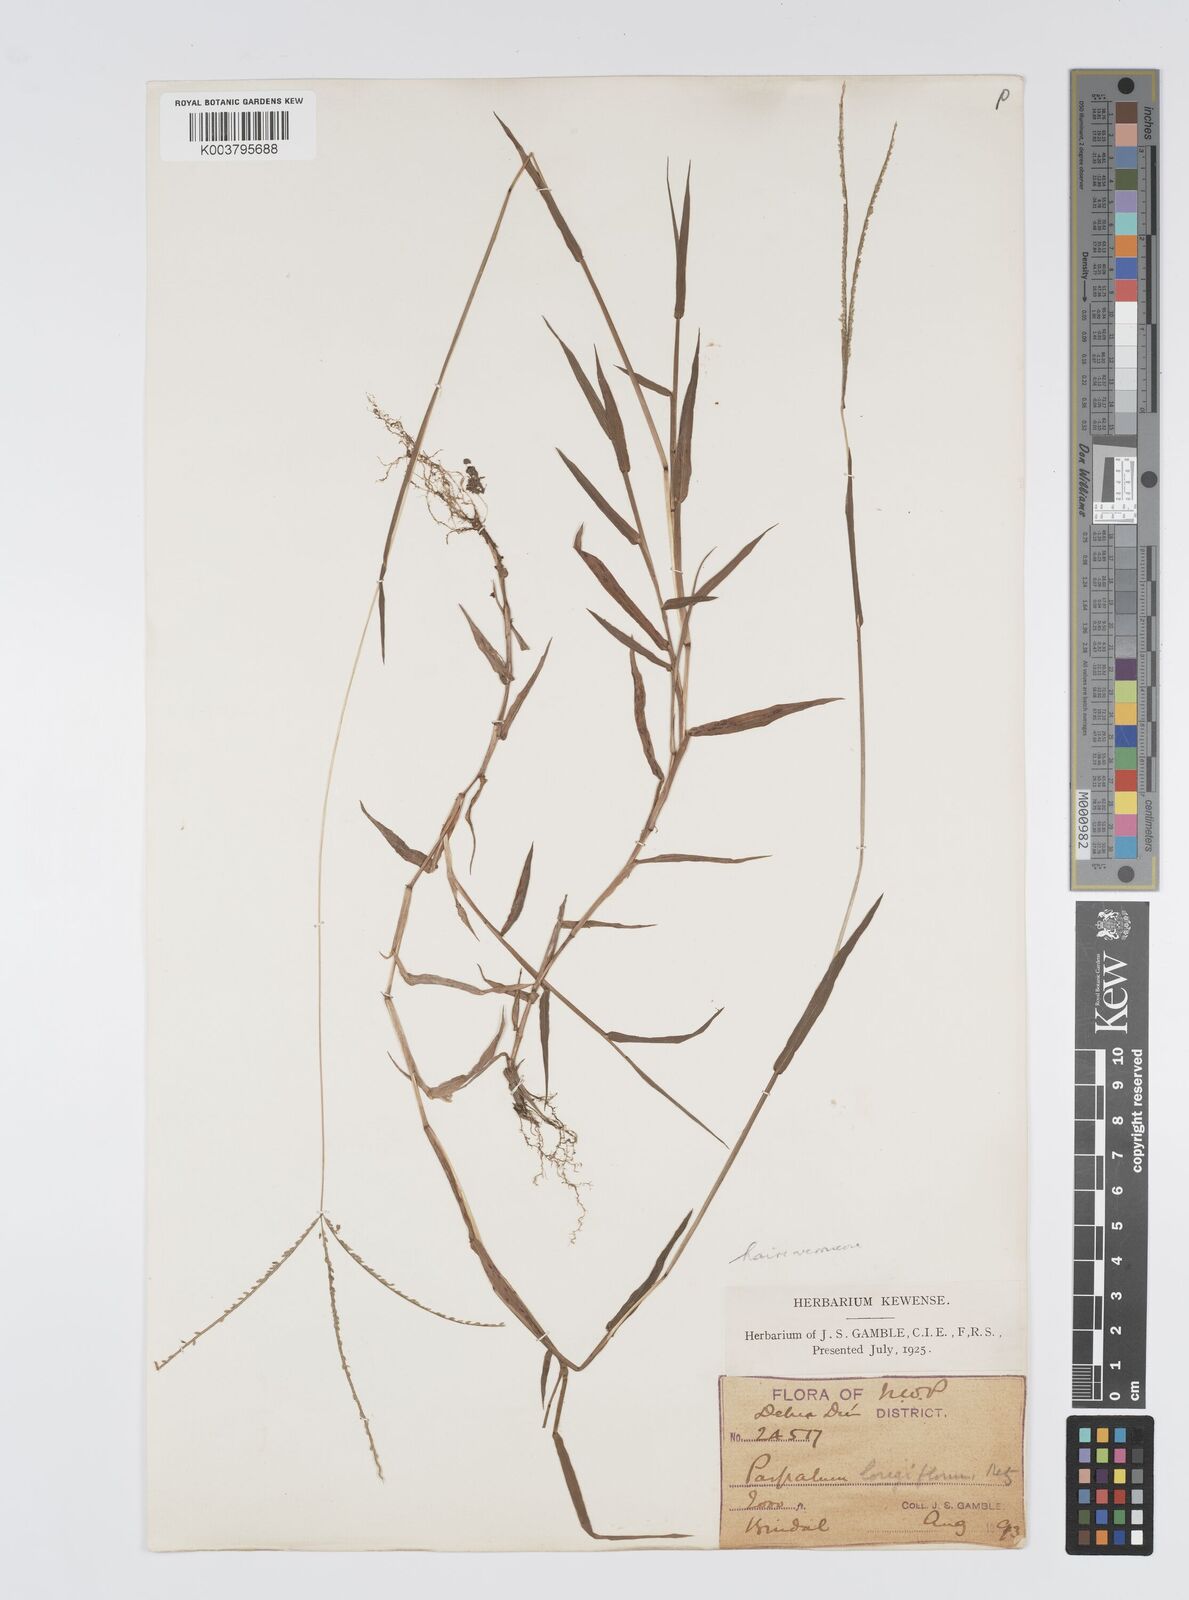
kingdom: Plantae
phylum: Tracheophyta
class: Liliopsida
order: Poales
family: Poaceae
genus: Digitaria
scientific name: Digitaria longiflora
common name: Wire crabgrass
